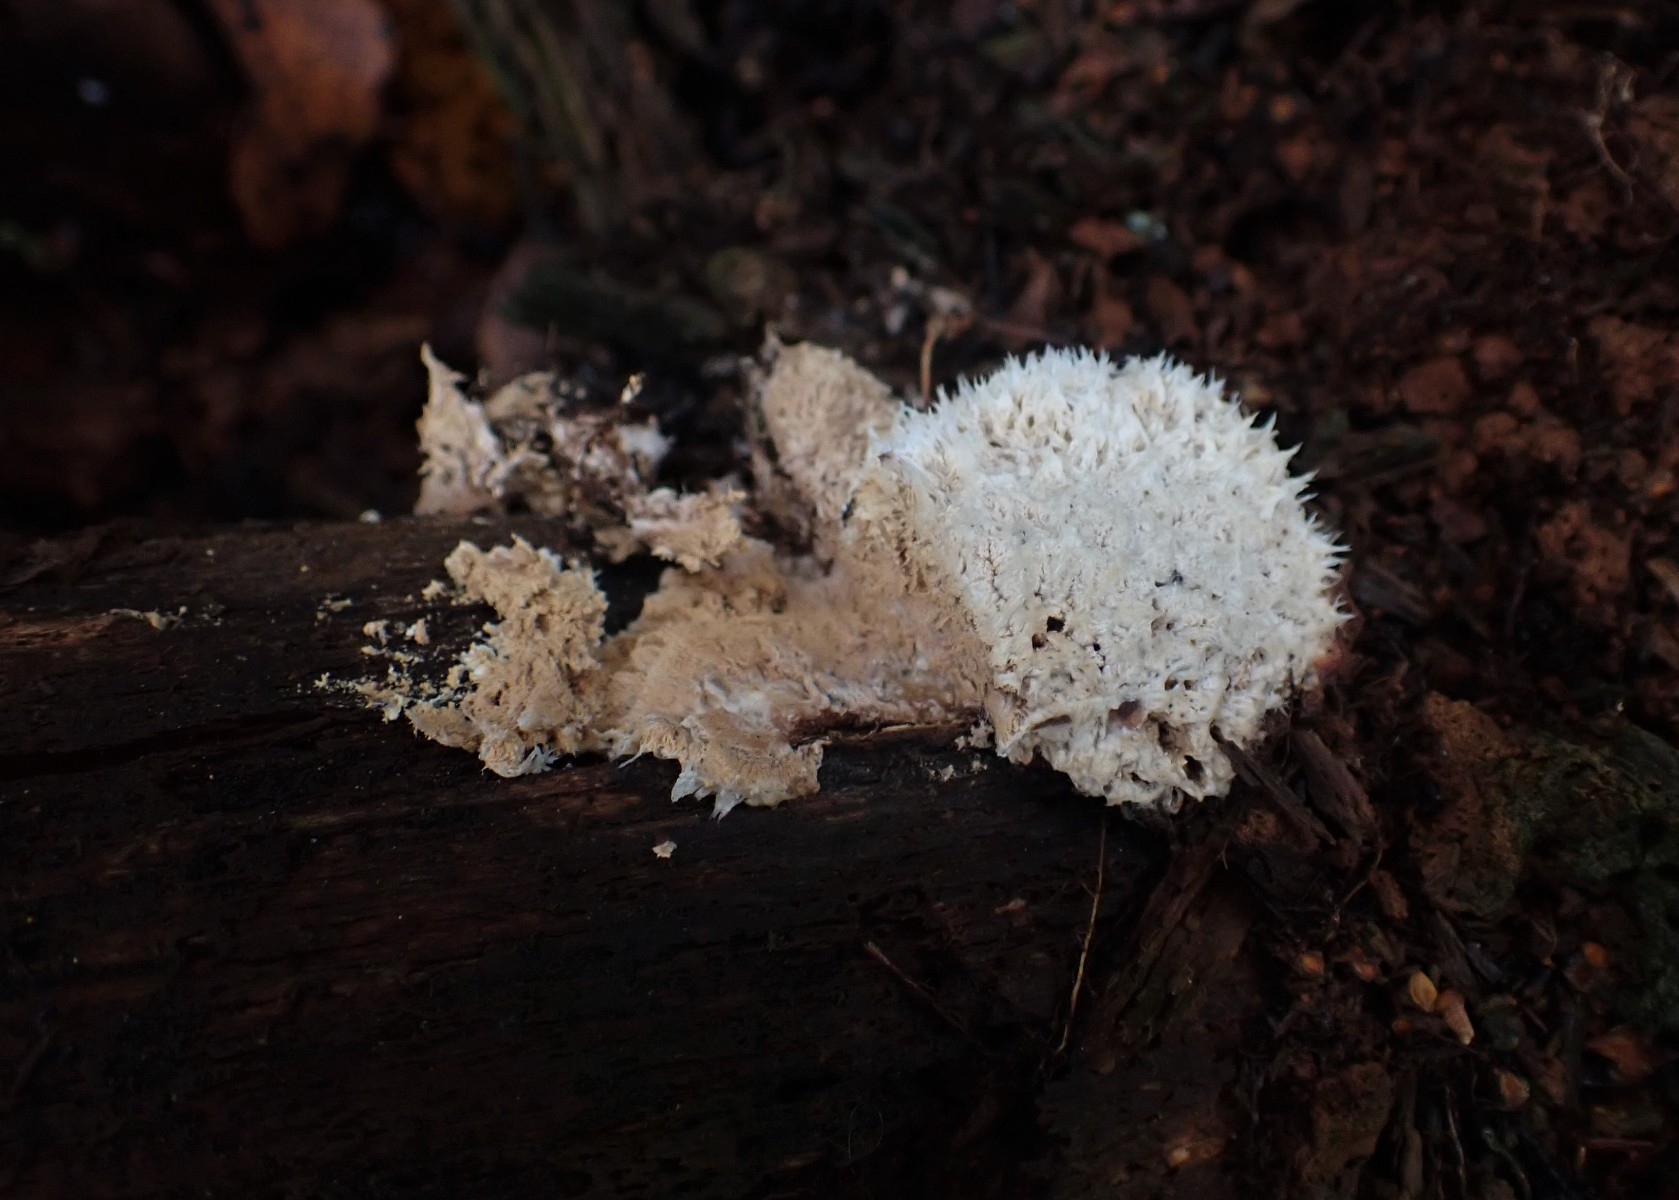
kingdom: Fungi
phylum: Basidiomycota
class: Agaricomycetes
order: Polyporales
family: Dacryobolaceae
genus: Postia
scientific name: Postia ptychogaster
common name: støvende kødporesvamp
